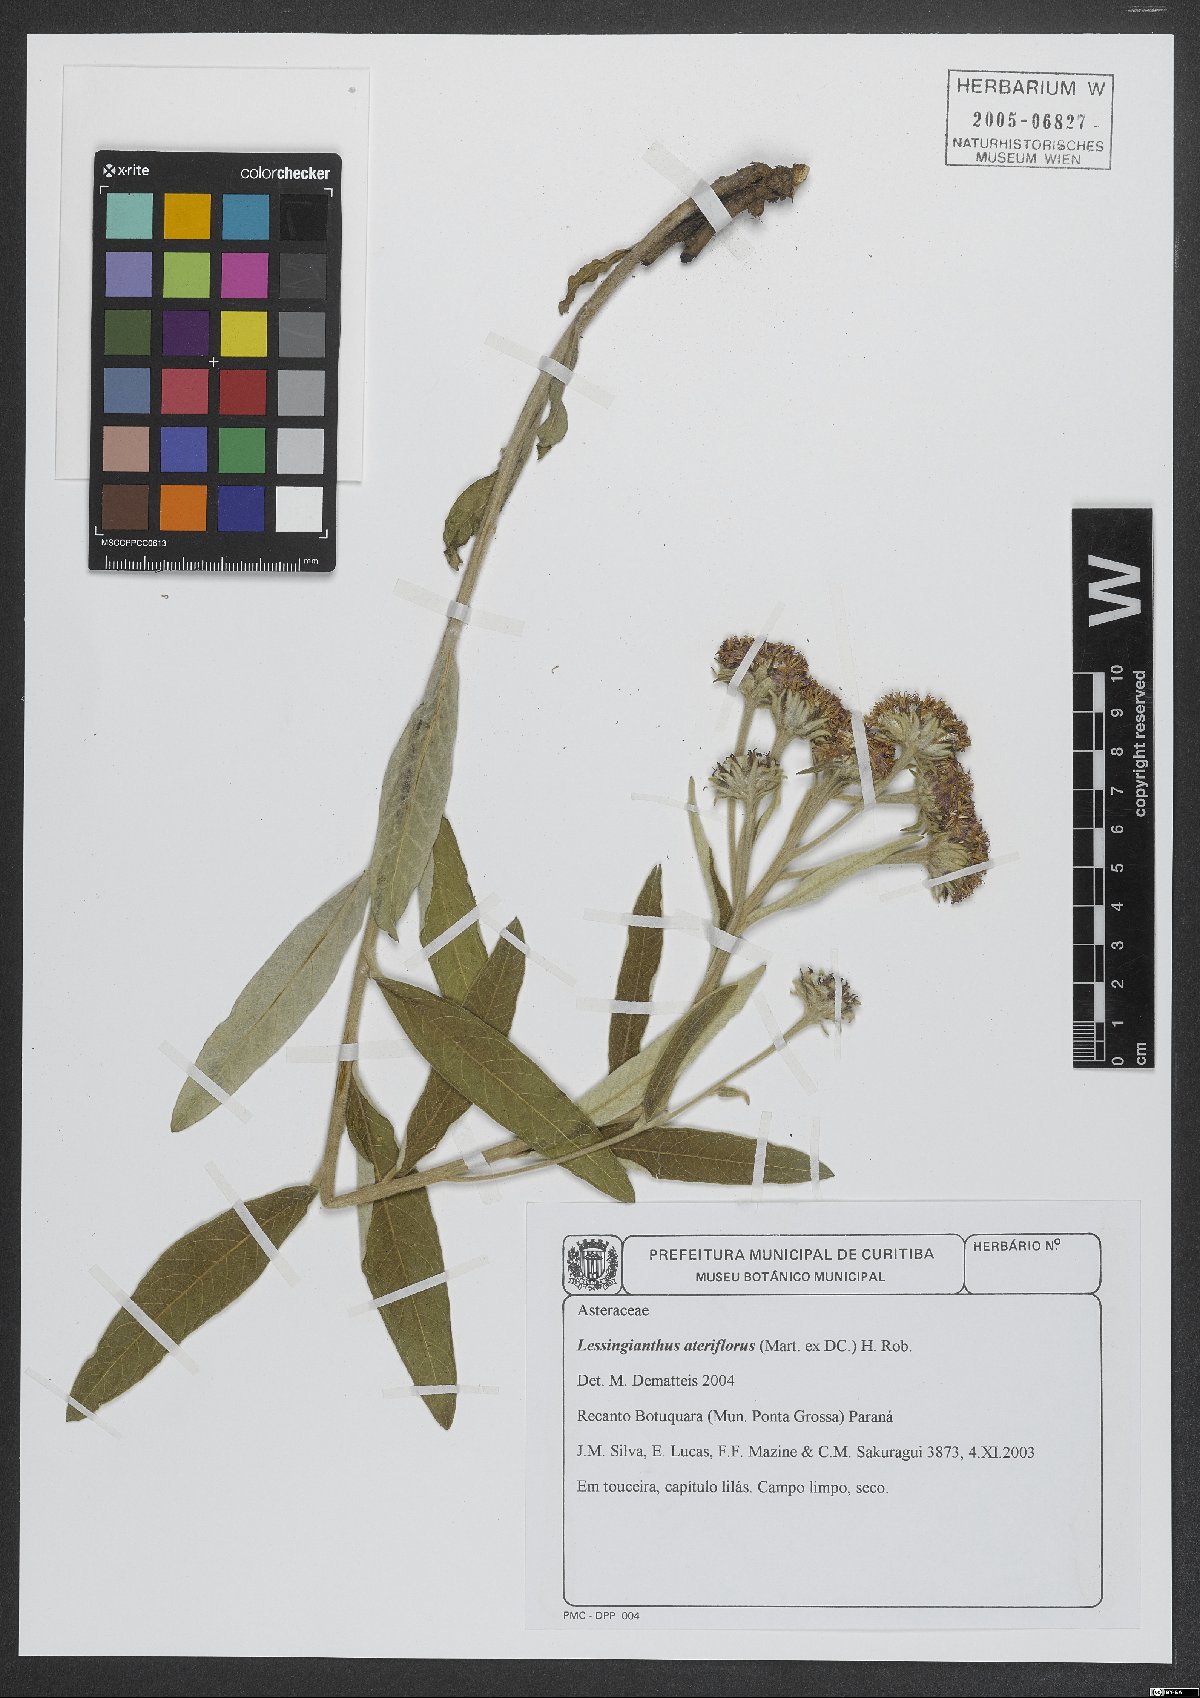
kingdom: Plantae
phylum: Tracheophyta
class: Magnoliopsida
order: Asterales
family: Asteraceae
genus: Lessingianthus
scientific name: Lessingianthus asteriflorus
